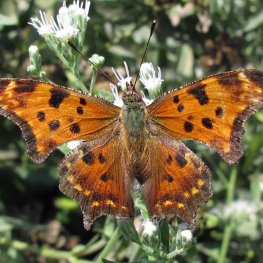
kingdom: Animalia
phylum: Arthropoda
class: Insecta
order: Lepidoptera
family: Nymphalidae
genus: Polygonia
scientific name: Polygonia comma
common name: Eastern Comma
